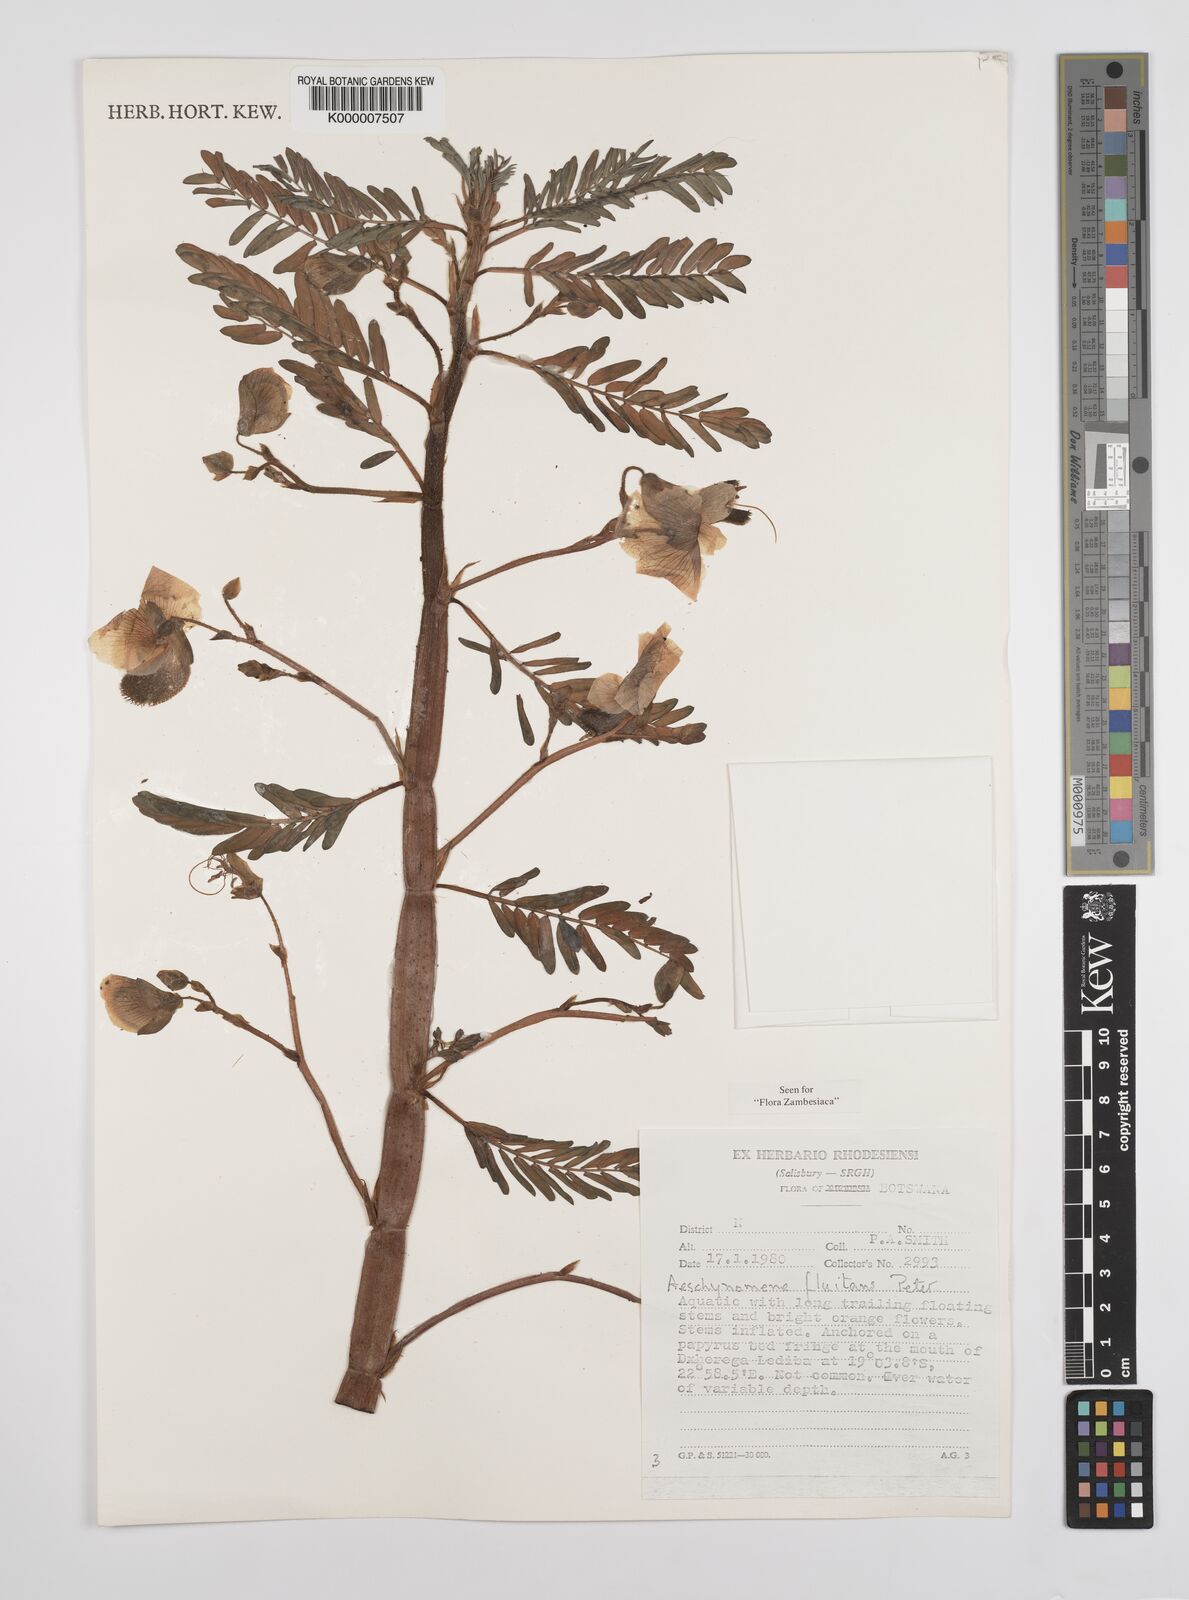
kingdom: Plantae
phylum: Tracheophyta
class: Magnoliopsida
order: Fabales
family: Fabaceae
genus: Aeschynomene
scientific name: Aeschynomene fluitans
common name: Giant water sensitive plant
